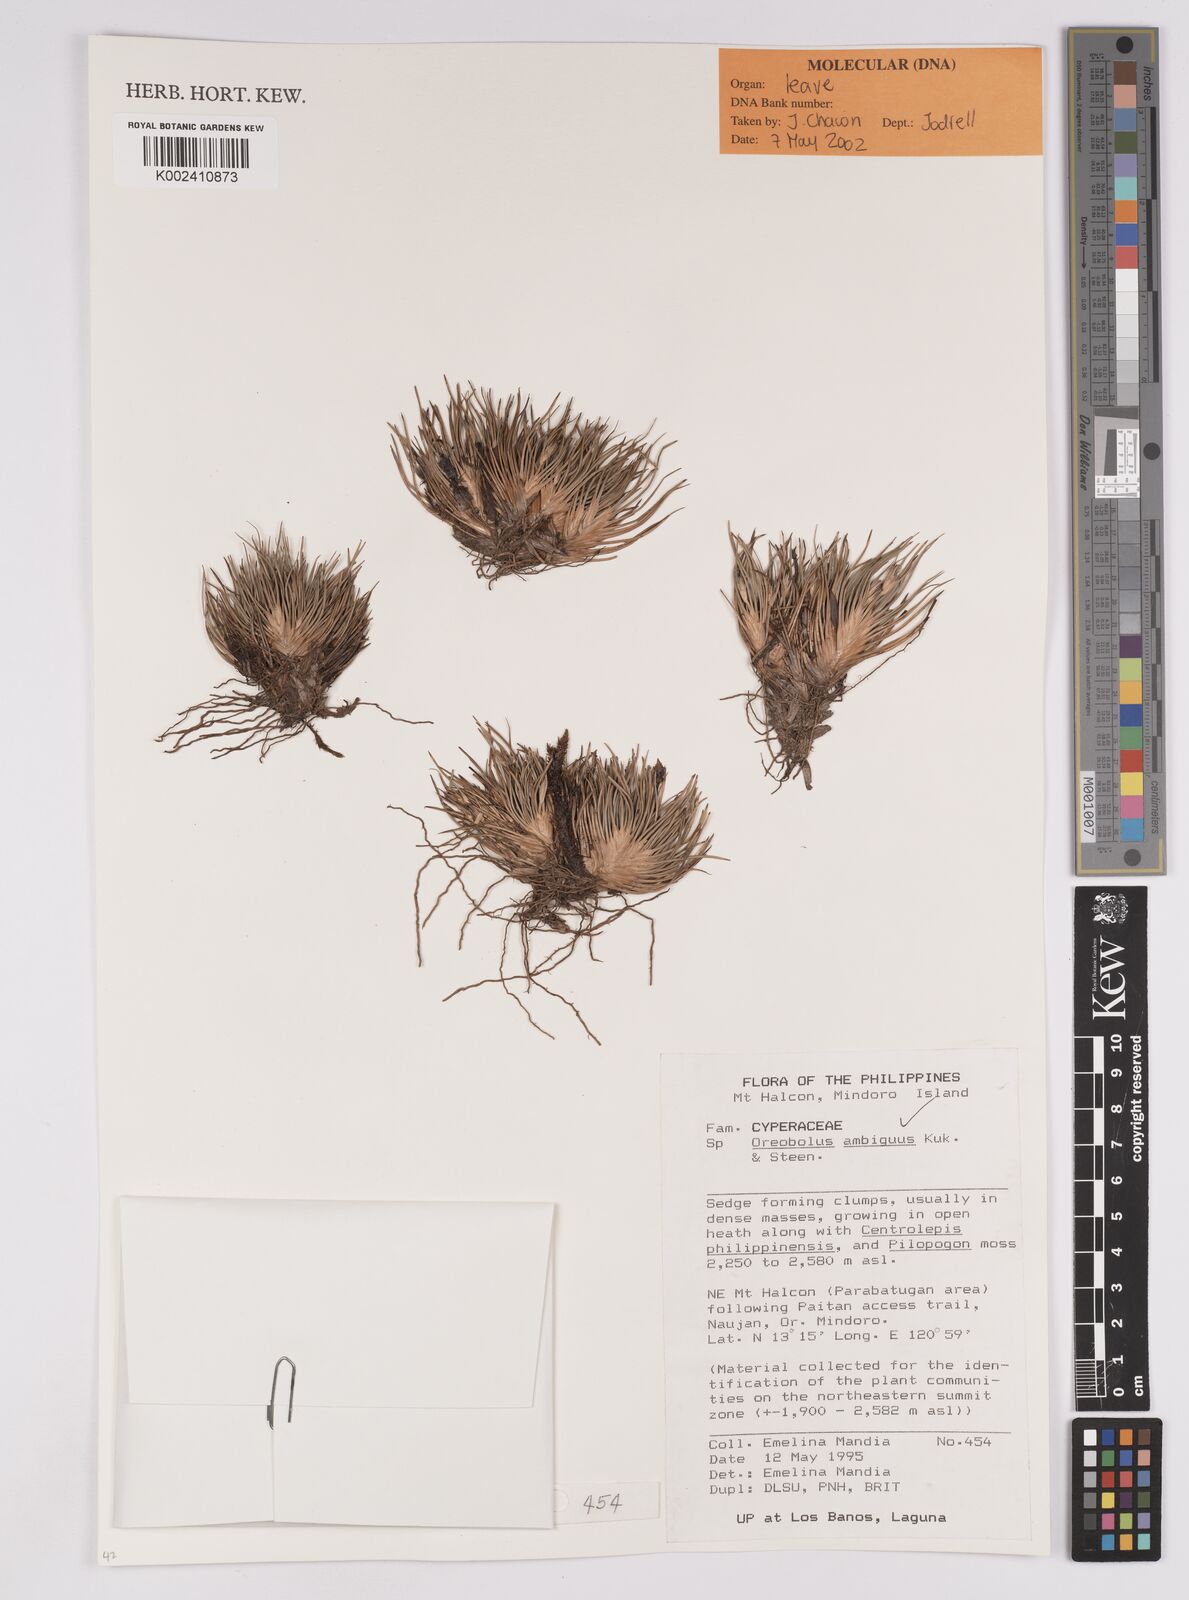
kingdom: Plantae
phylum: Tracheophyta
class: Liliopsida
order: Poales
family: Cyperaceae
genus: Oreobolus
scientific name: Oreobolus ambiguus
